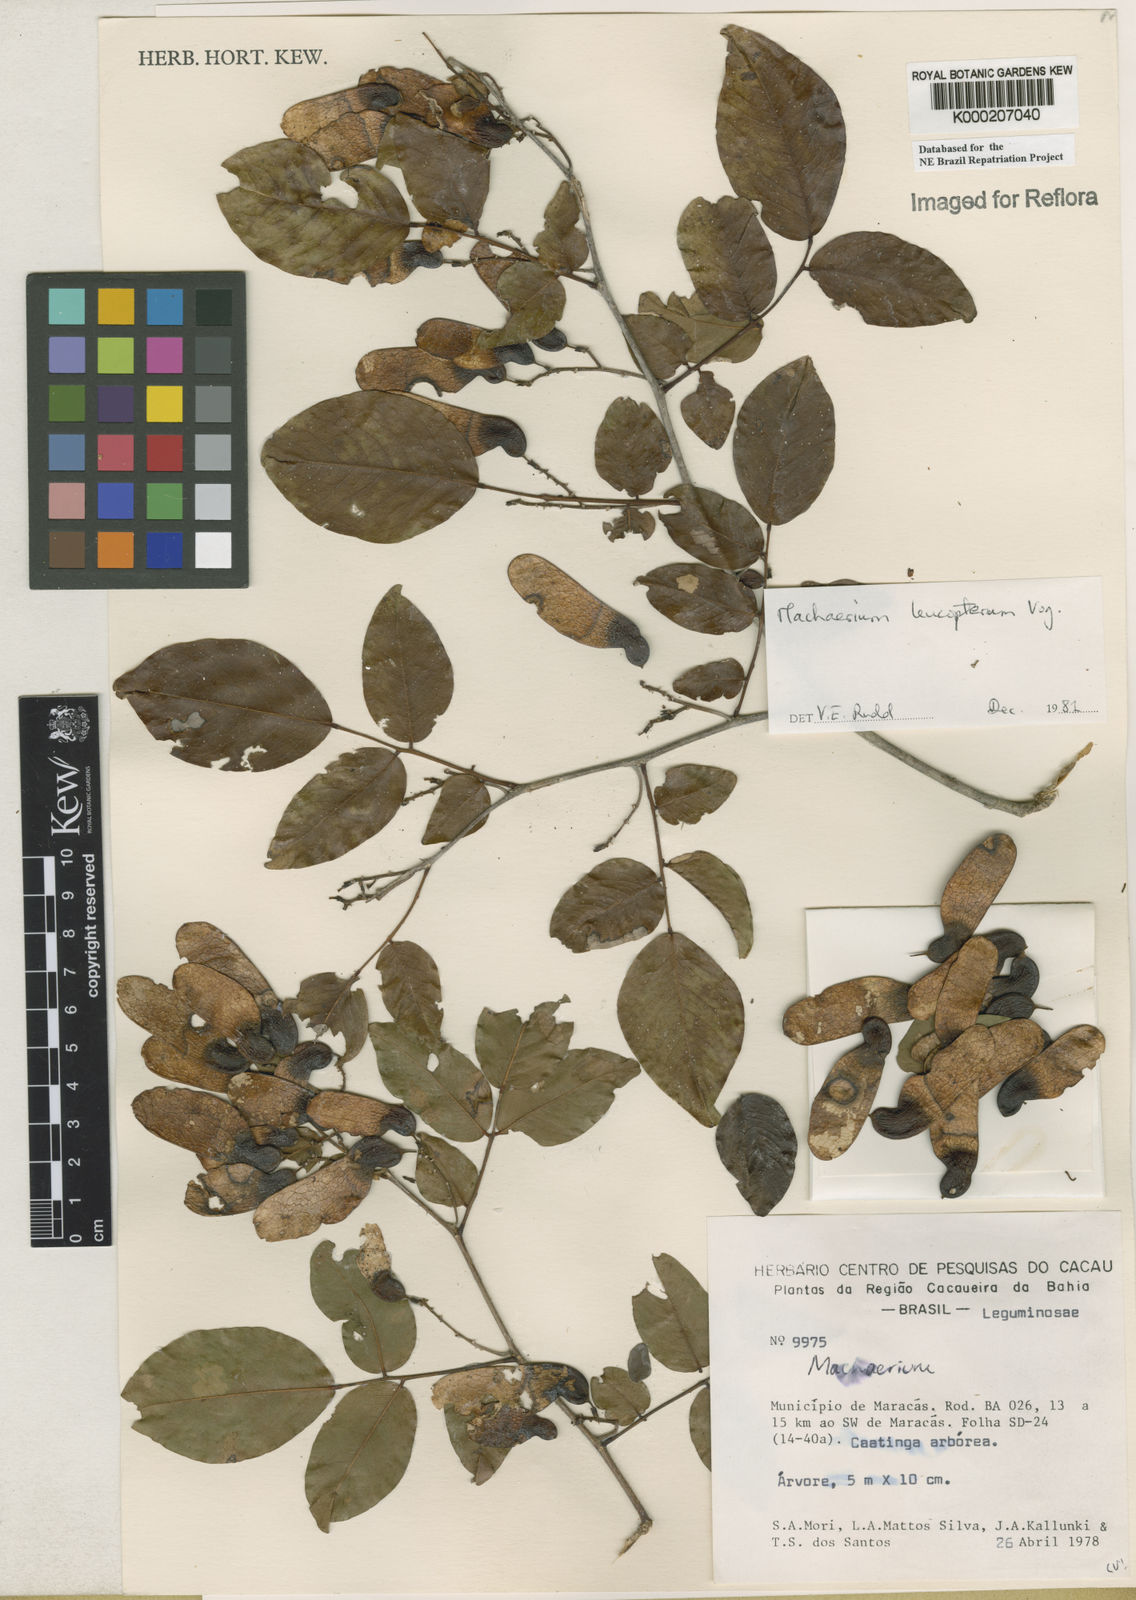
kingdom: Plantae
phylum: Tracheophyta
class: Magnoliopsida
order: Fabales
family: Fabaceae
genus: Machaerium
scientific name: Machaerium leucopterum
